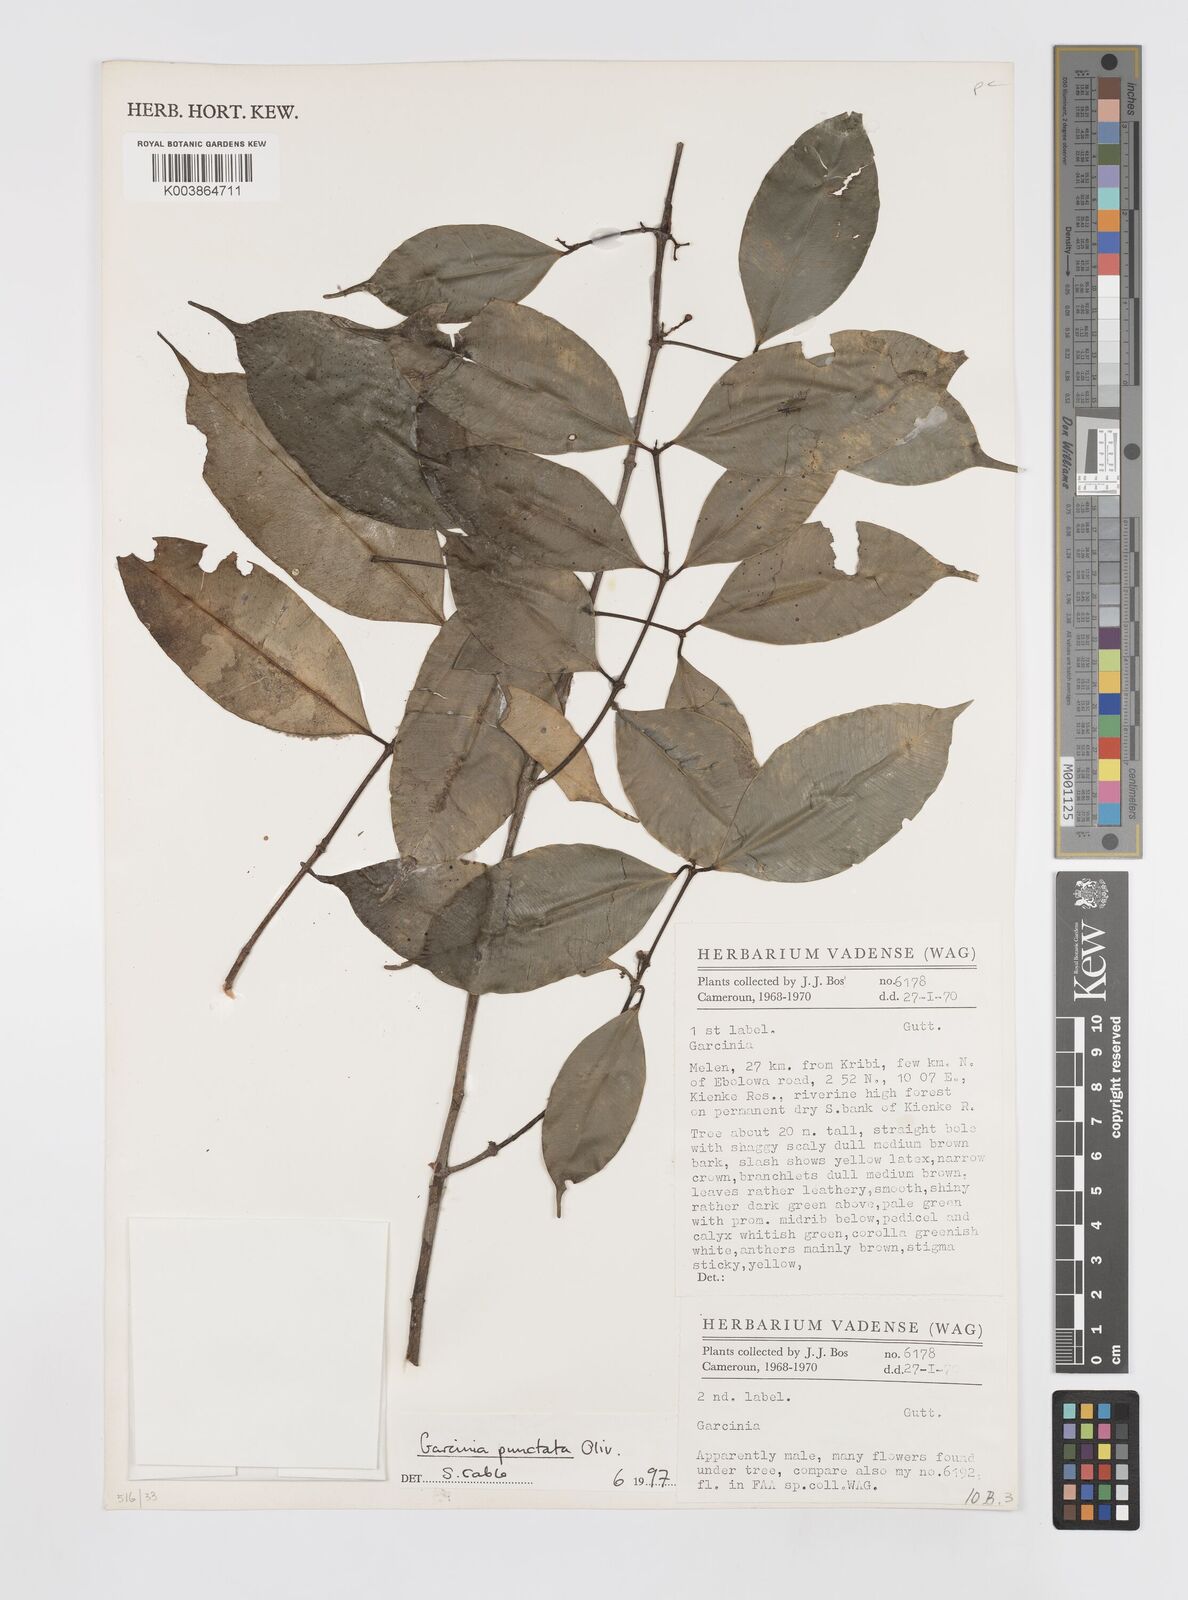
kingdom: Plantae
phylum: Tracheophyta
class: Magnoliopsida
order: Malpighiales
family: Clusiaceae
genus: Garcinia
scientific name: Garcinia punctata
